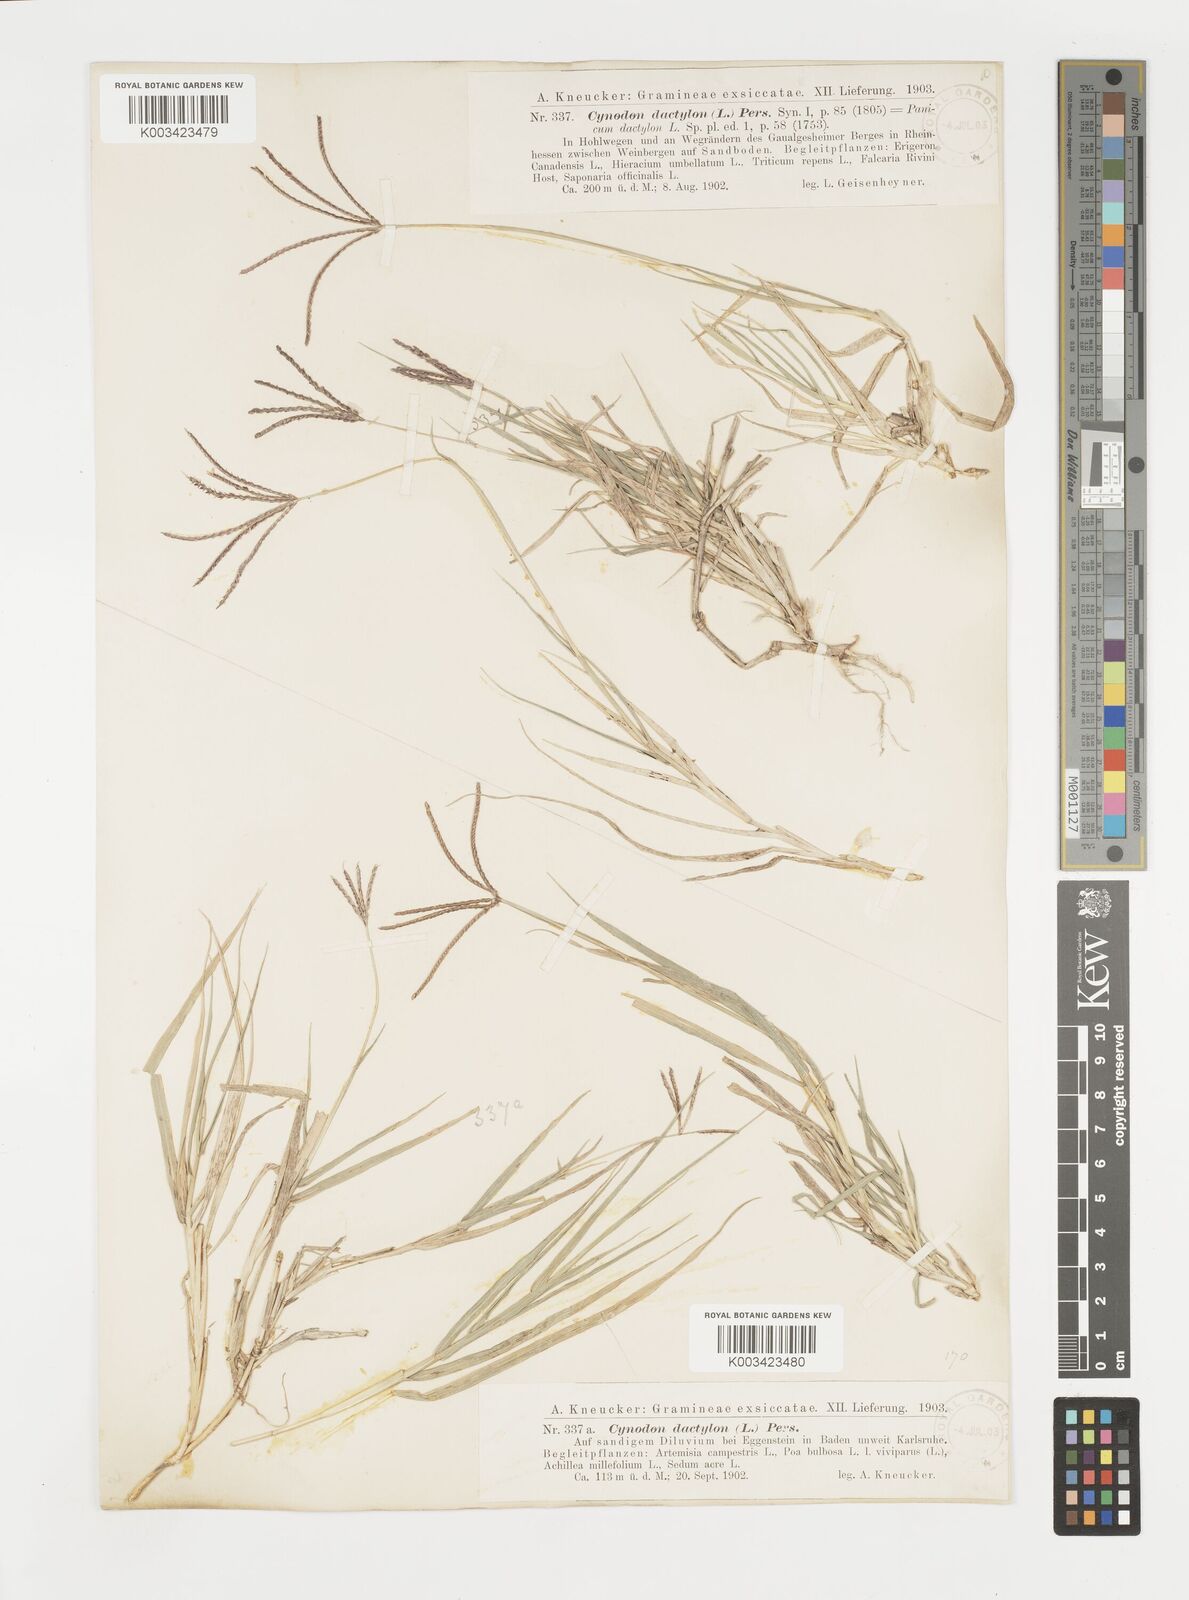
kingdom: Plantae
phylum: Tracheophyta
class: Liliopsida
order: Poales
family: Poaceae
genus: Cynodon
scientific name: Cynodon dactylon
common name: Bermuda grass
